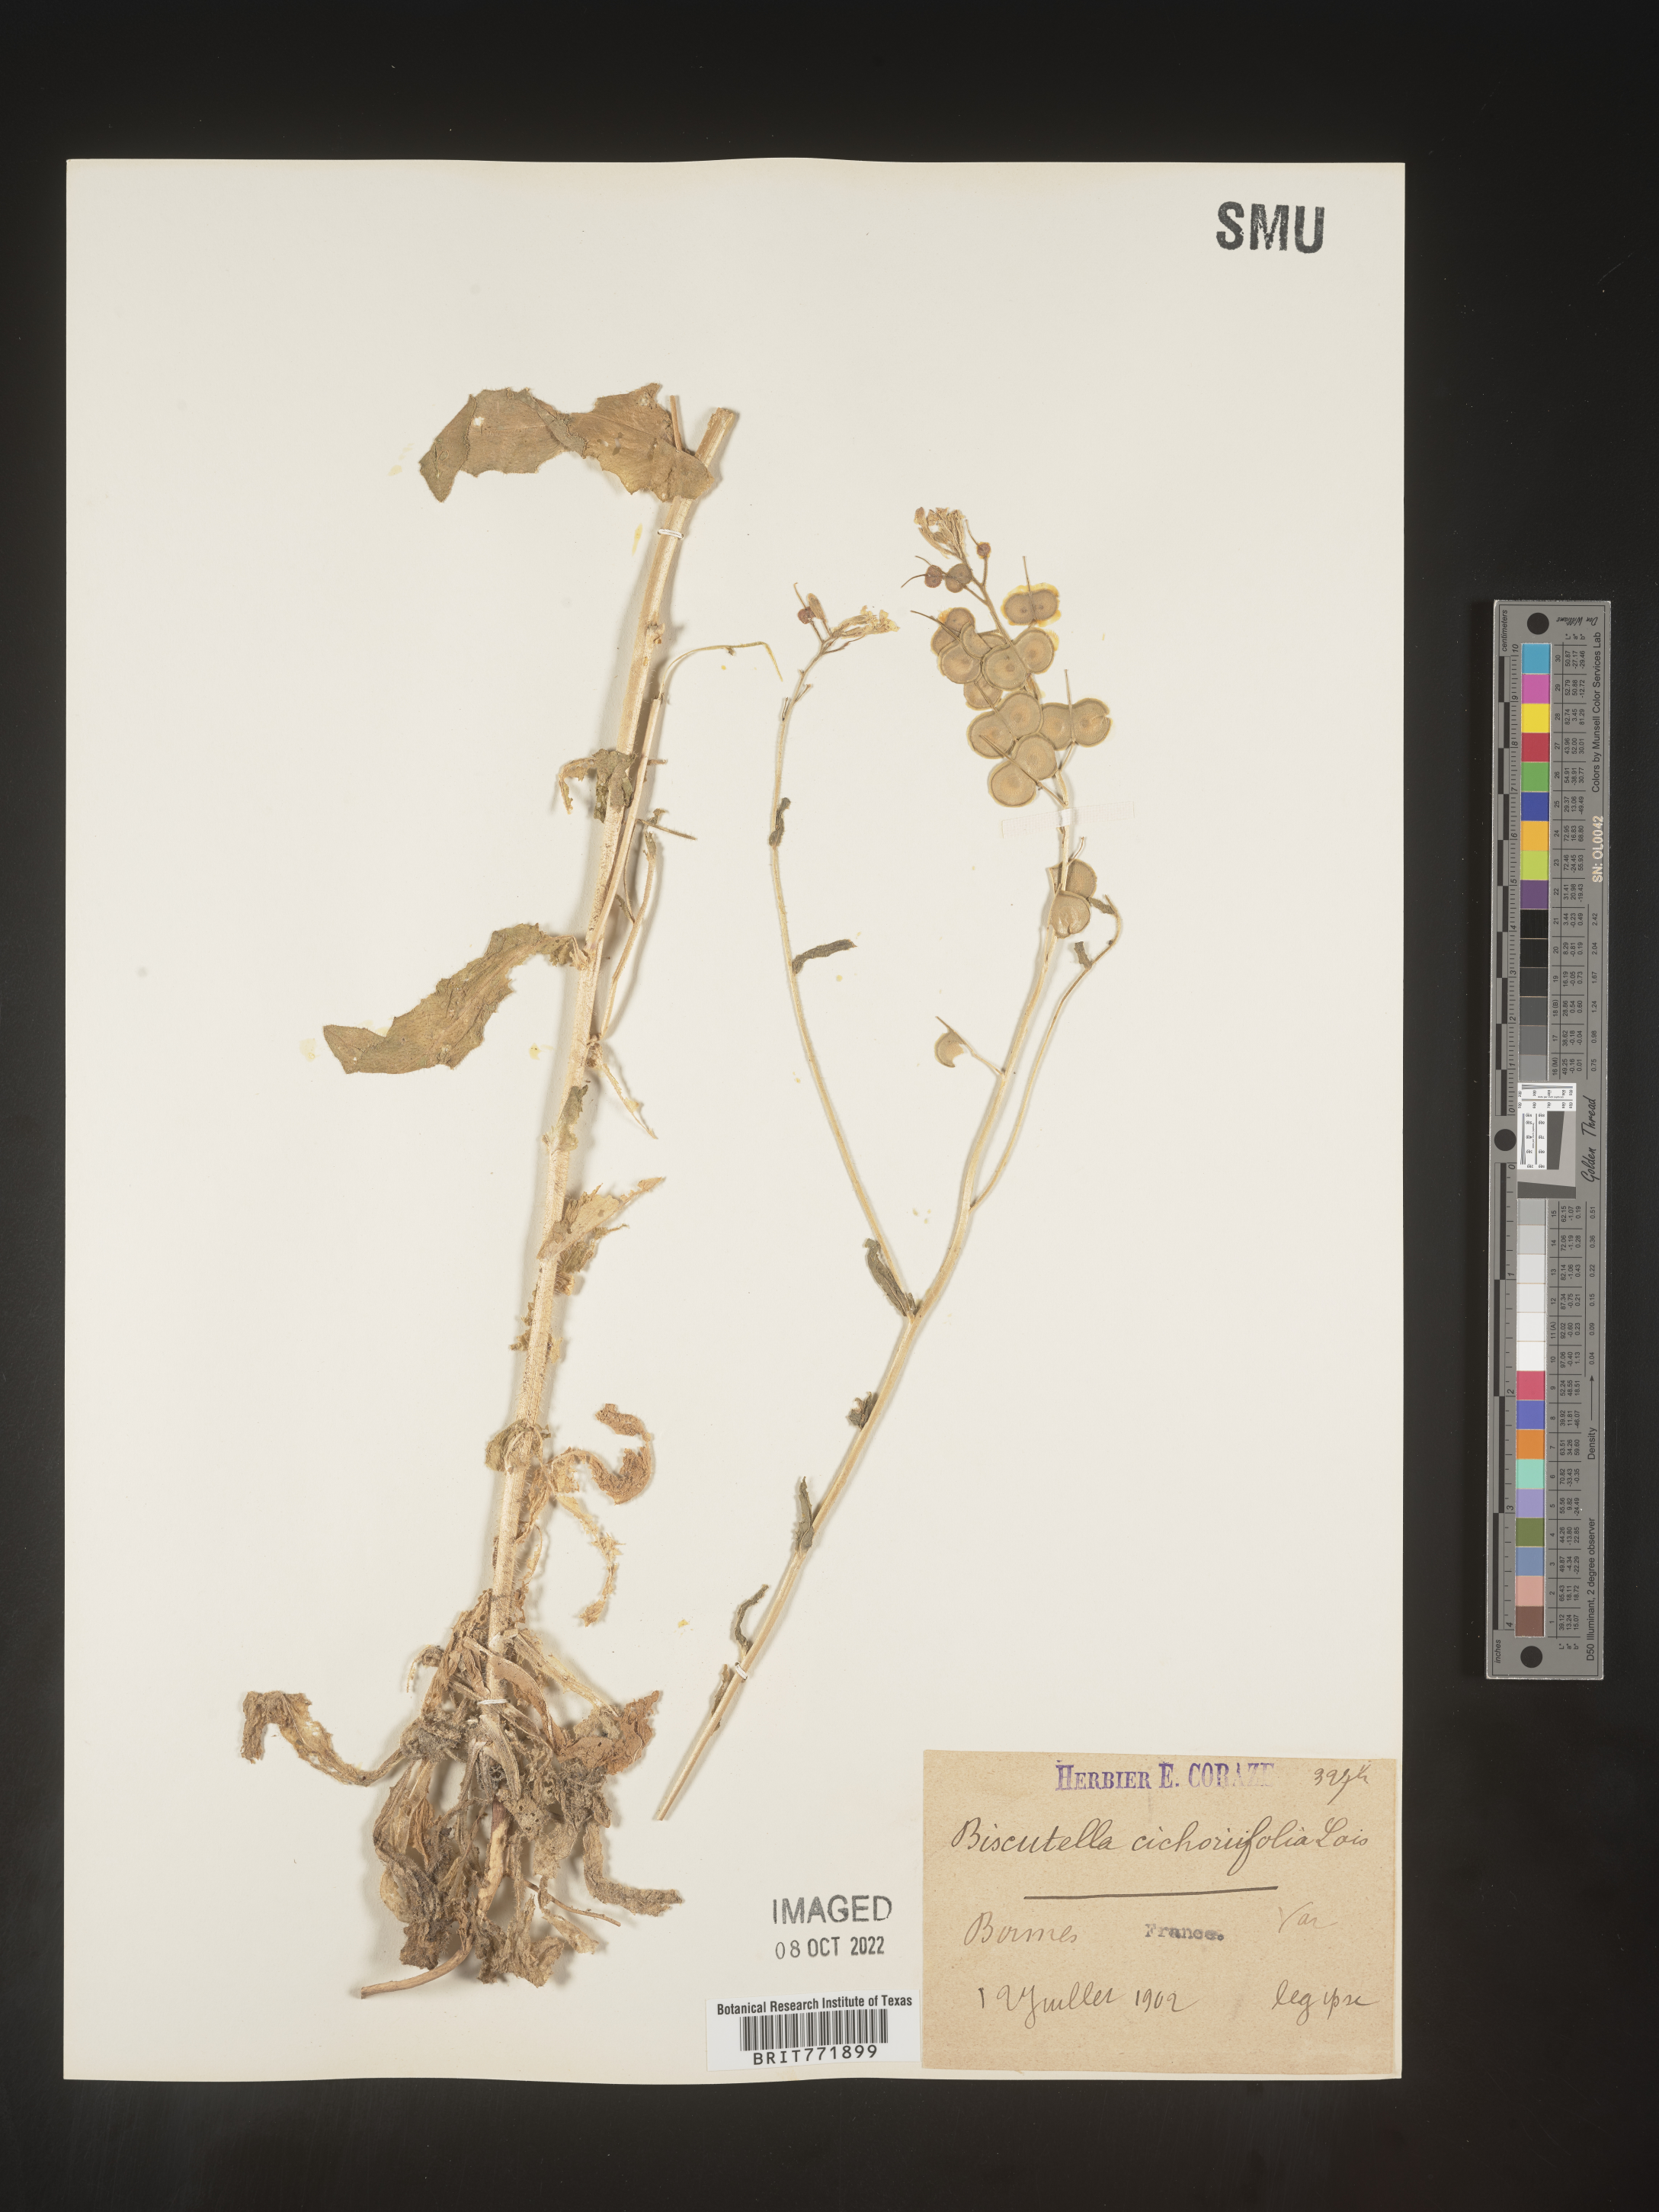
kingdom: Plantae
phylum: Tracheophyta
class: Magnoliopsida
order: Brassicales
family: Brassicaceae
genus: Biscutella
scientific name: Biscutella
